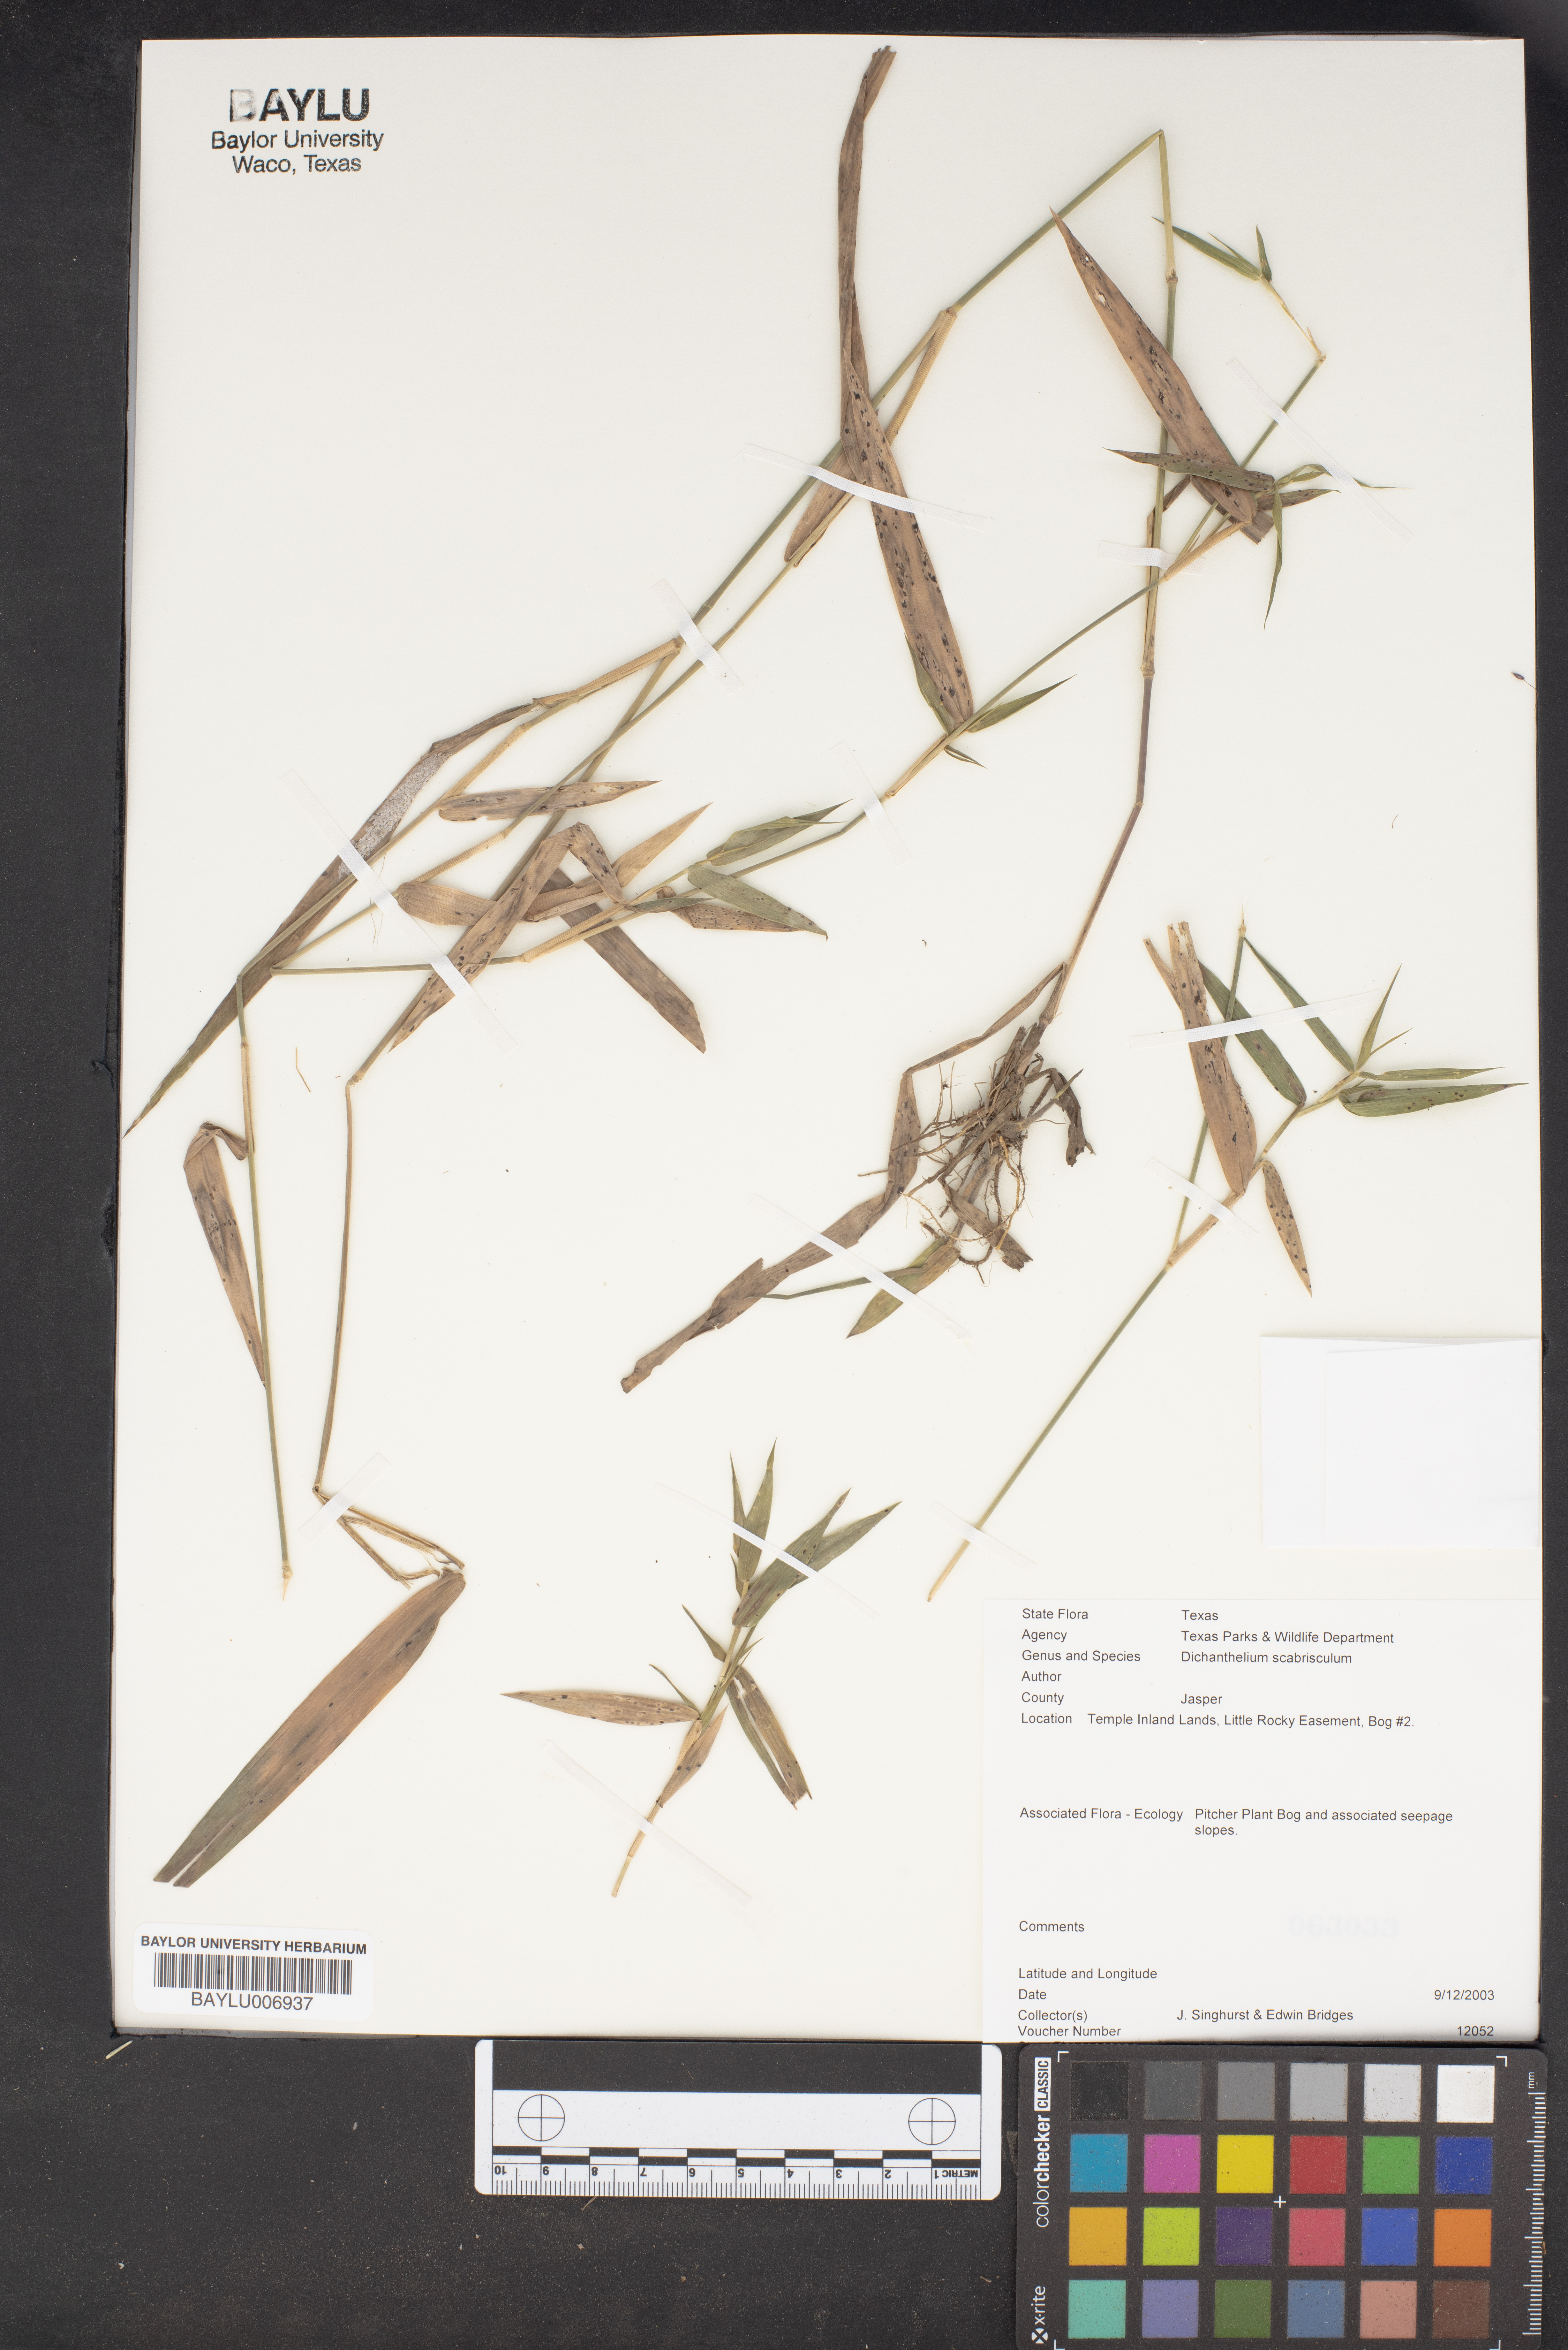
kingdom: Plantae
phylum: Tracheophyta
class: Liliopsida
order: Poales
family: Poaceae
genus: Dichanthelium
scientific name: Dichanthelium scabriusculum
